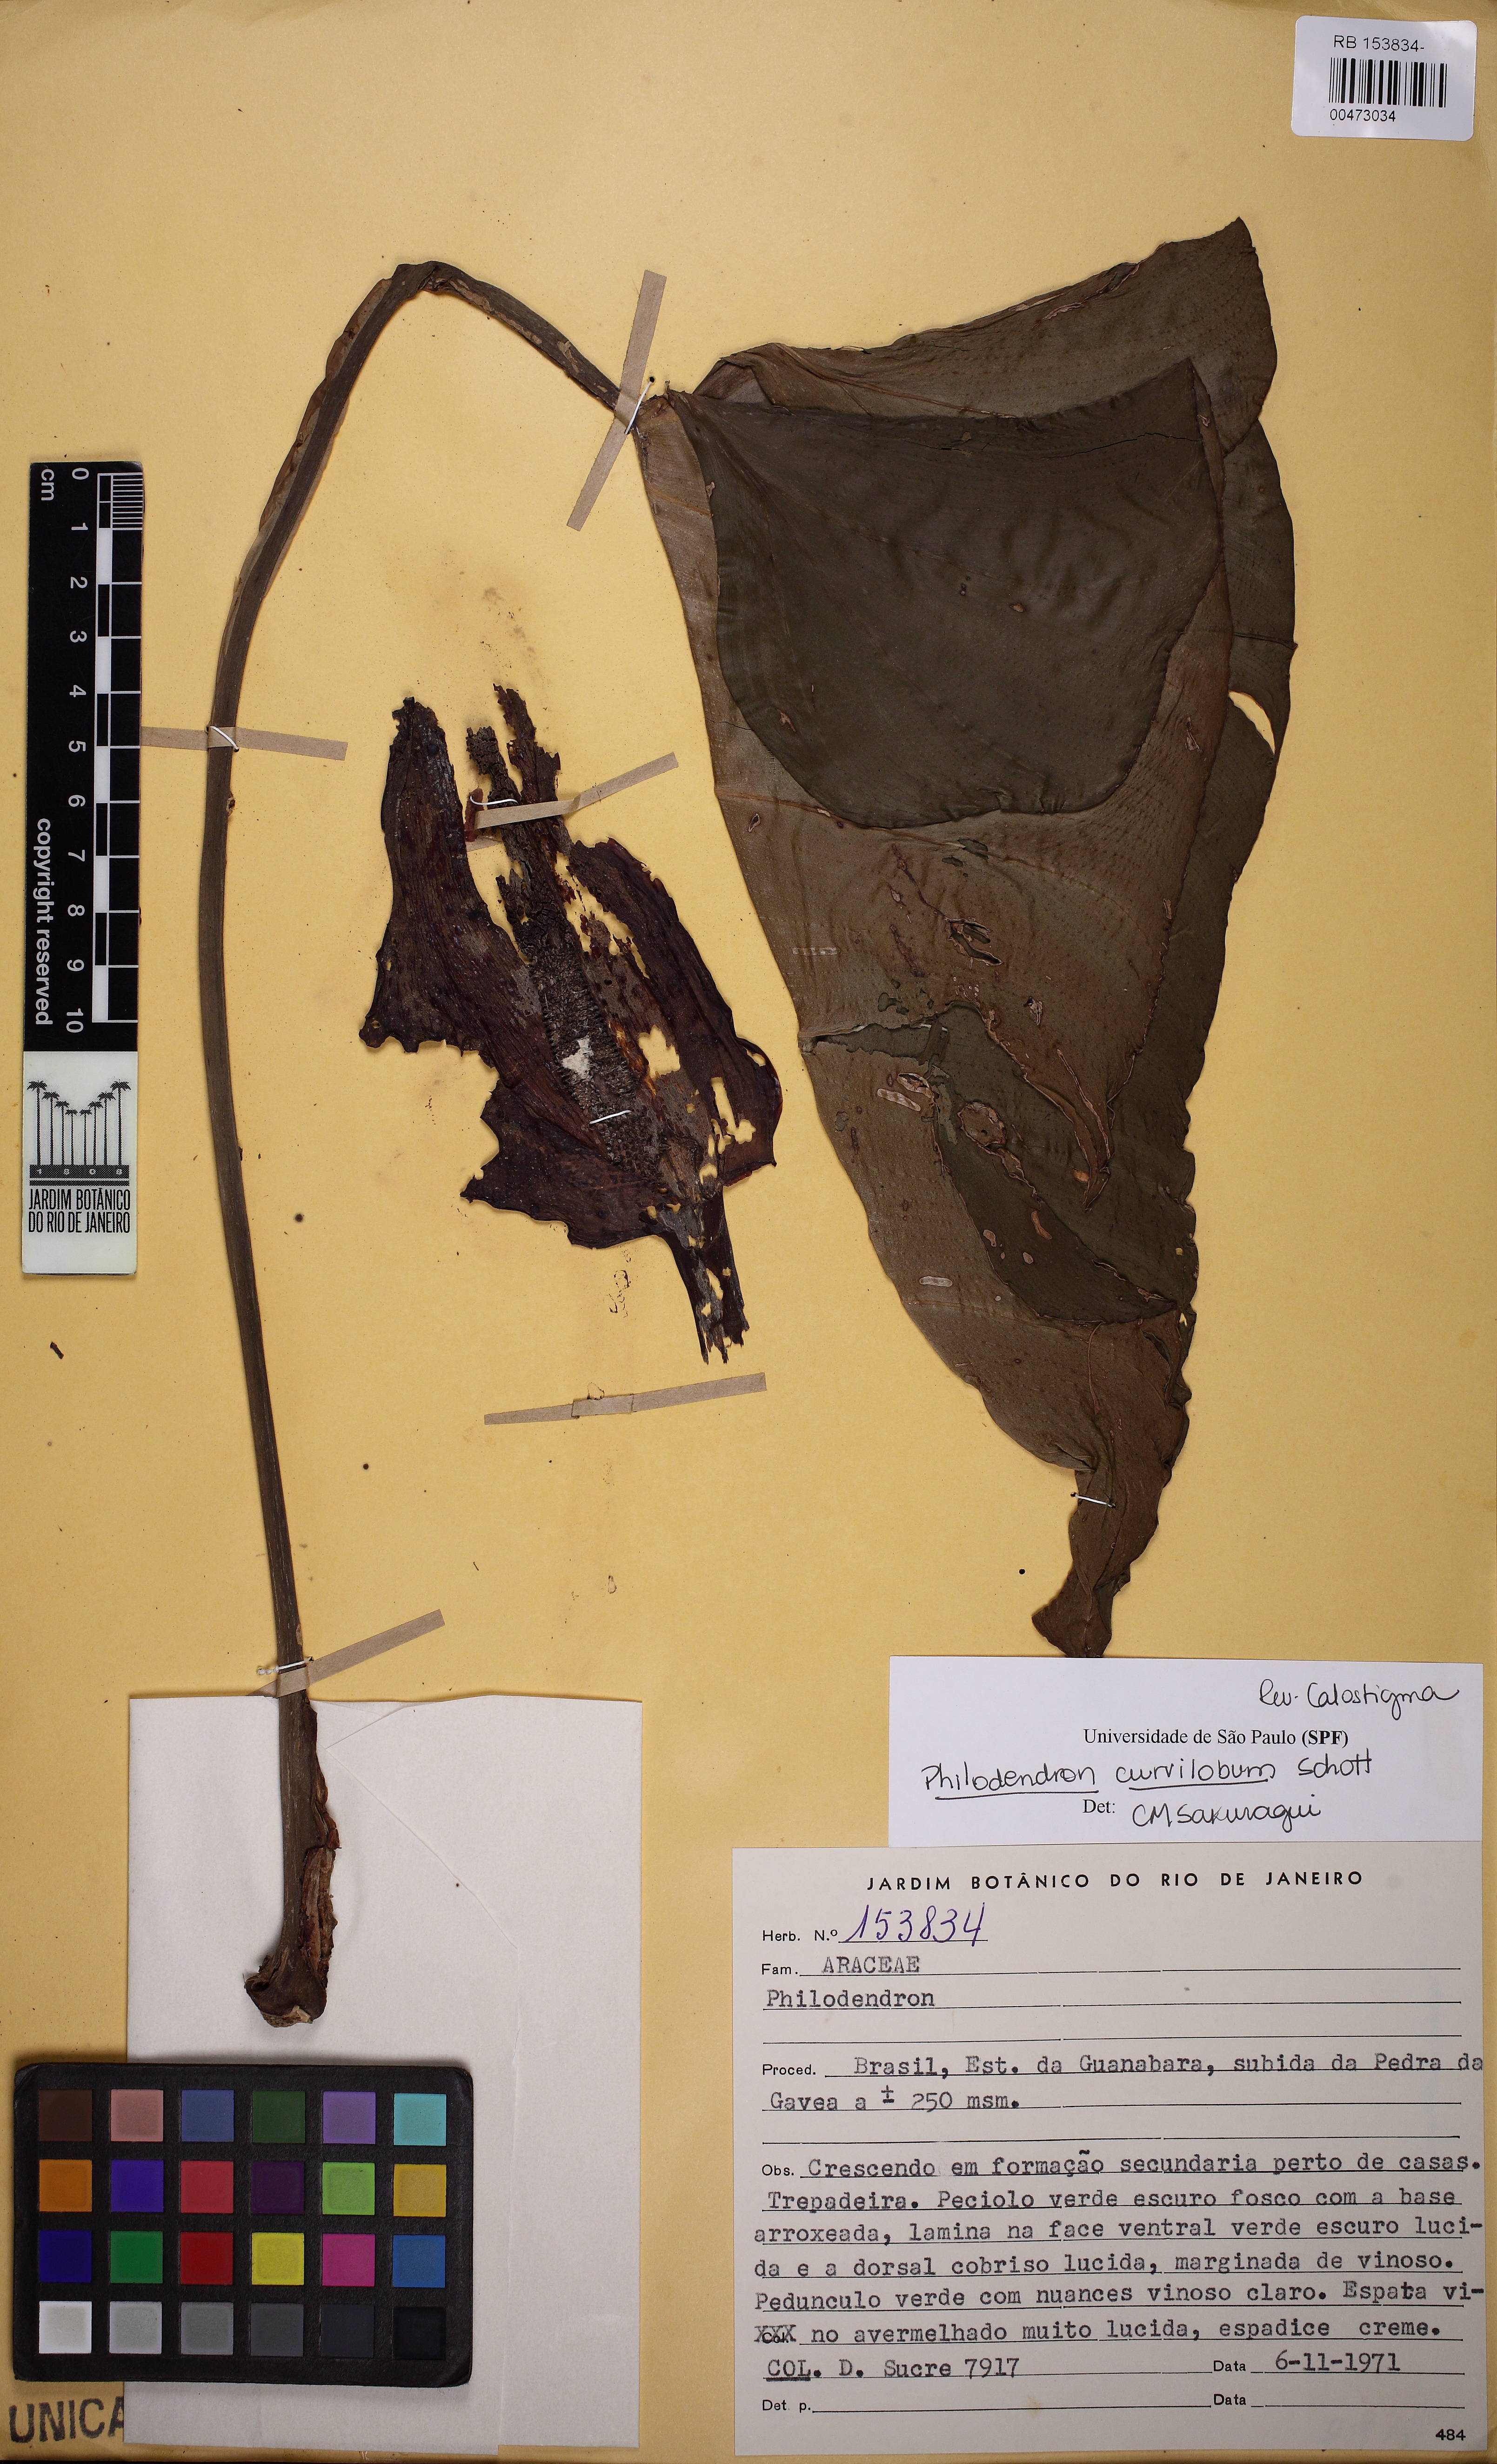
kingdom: Plantae
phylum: Tracheophyta
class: Liliopsida
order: Alismatales
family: Araceae
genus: Philodendron
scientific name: Philodendron curvilobum
